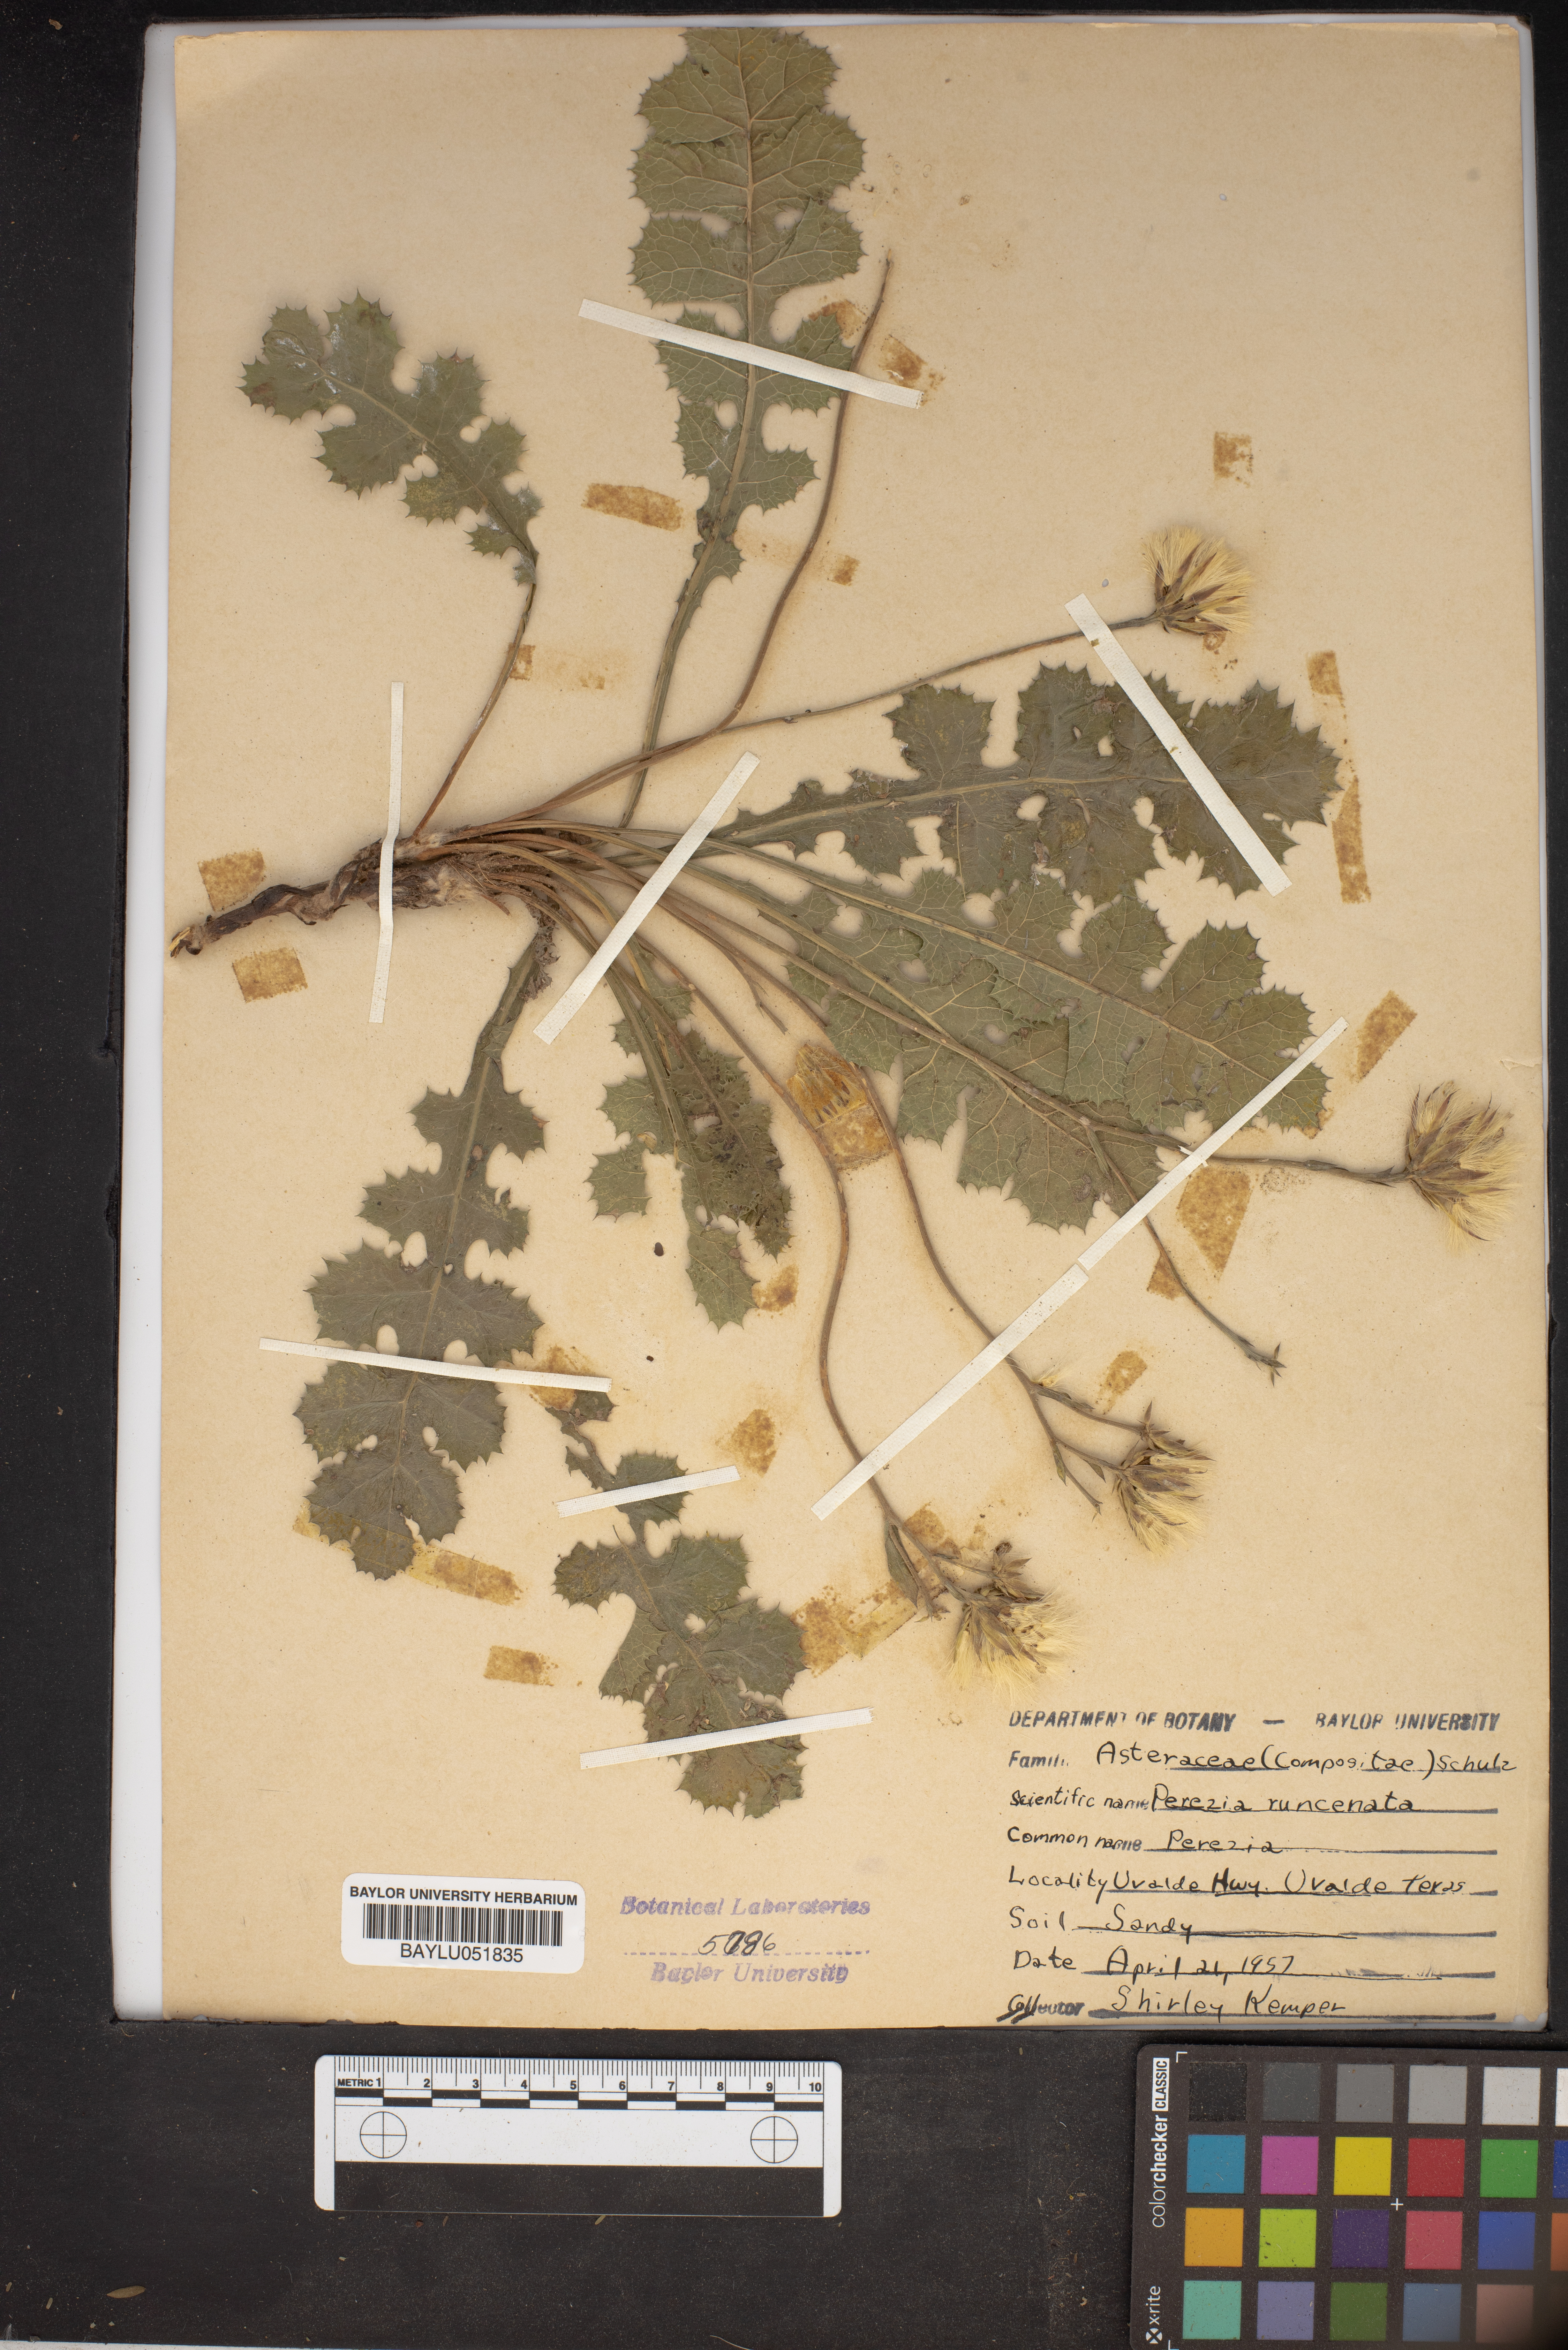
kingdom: Plantae
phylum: Tracheophyta
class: Magnoliopsida
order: Asterales
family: Asteraceae
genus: Acourtia
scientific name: Acourtia runcinata
